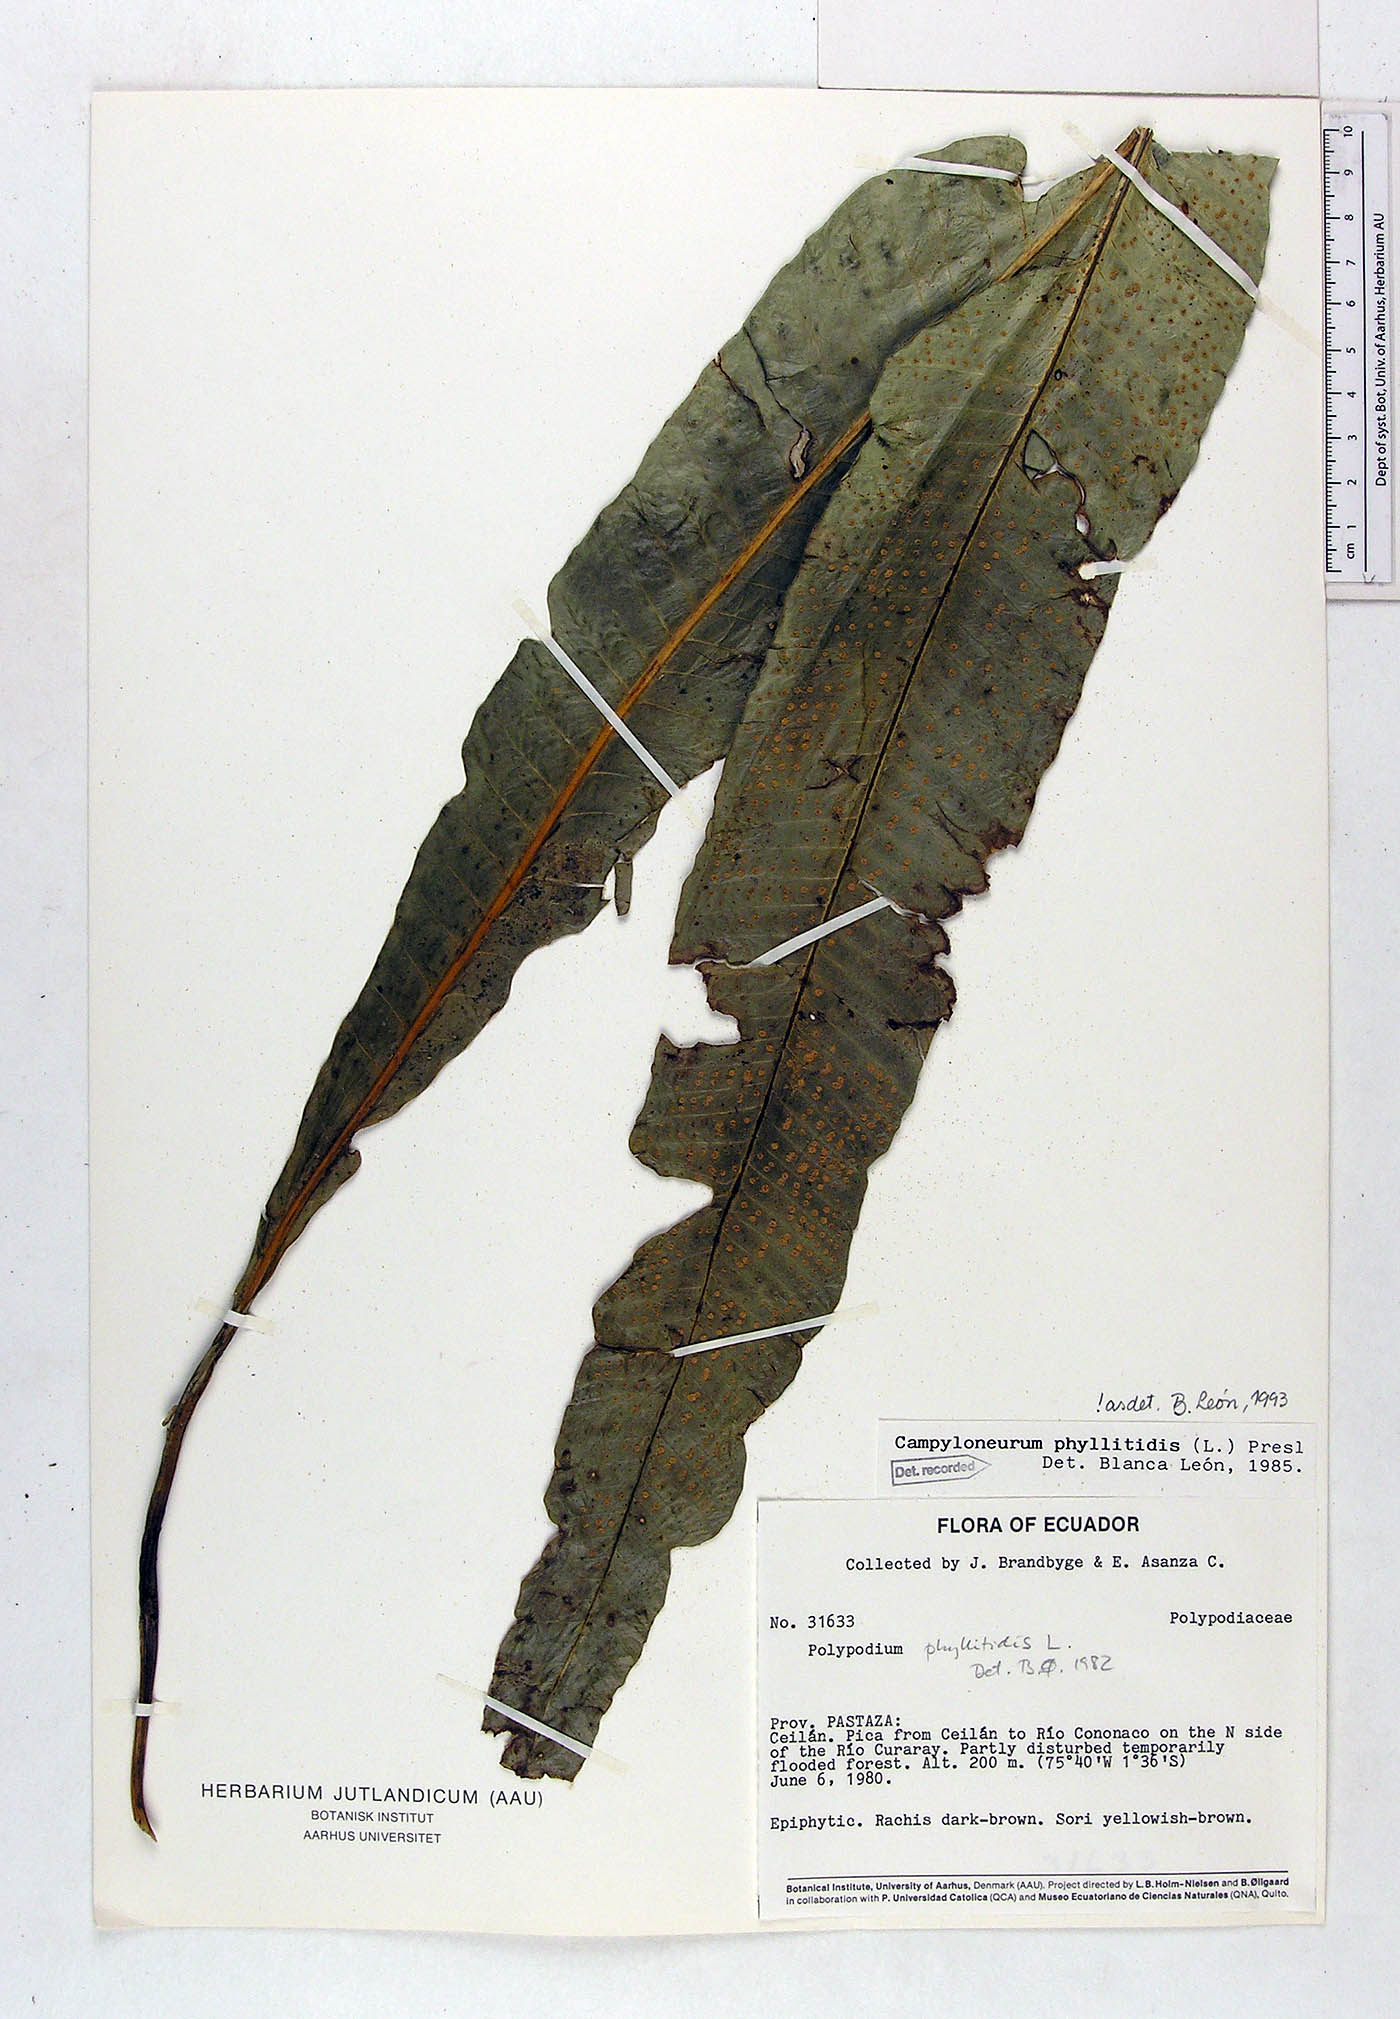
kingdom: Plantae
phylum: Tracheophyta
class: Polypodiopsida
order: Polypodiales
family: Polypodiaceae
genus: Campyloneurum
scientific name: Campyloneurum phyllitidis
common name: Cow-tongue fern
